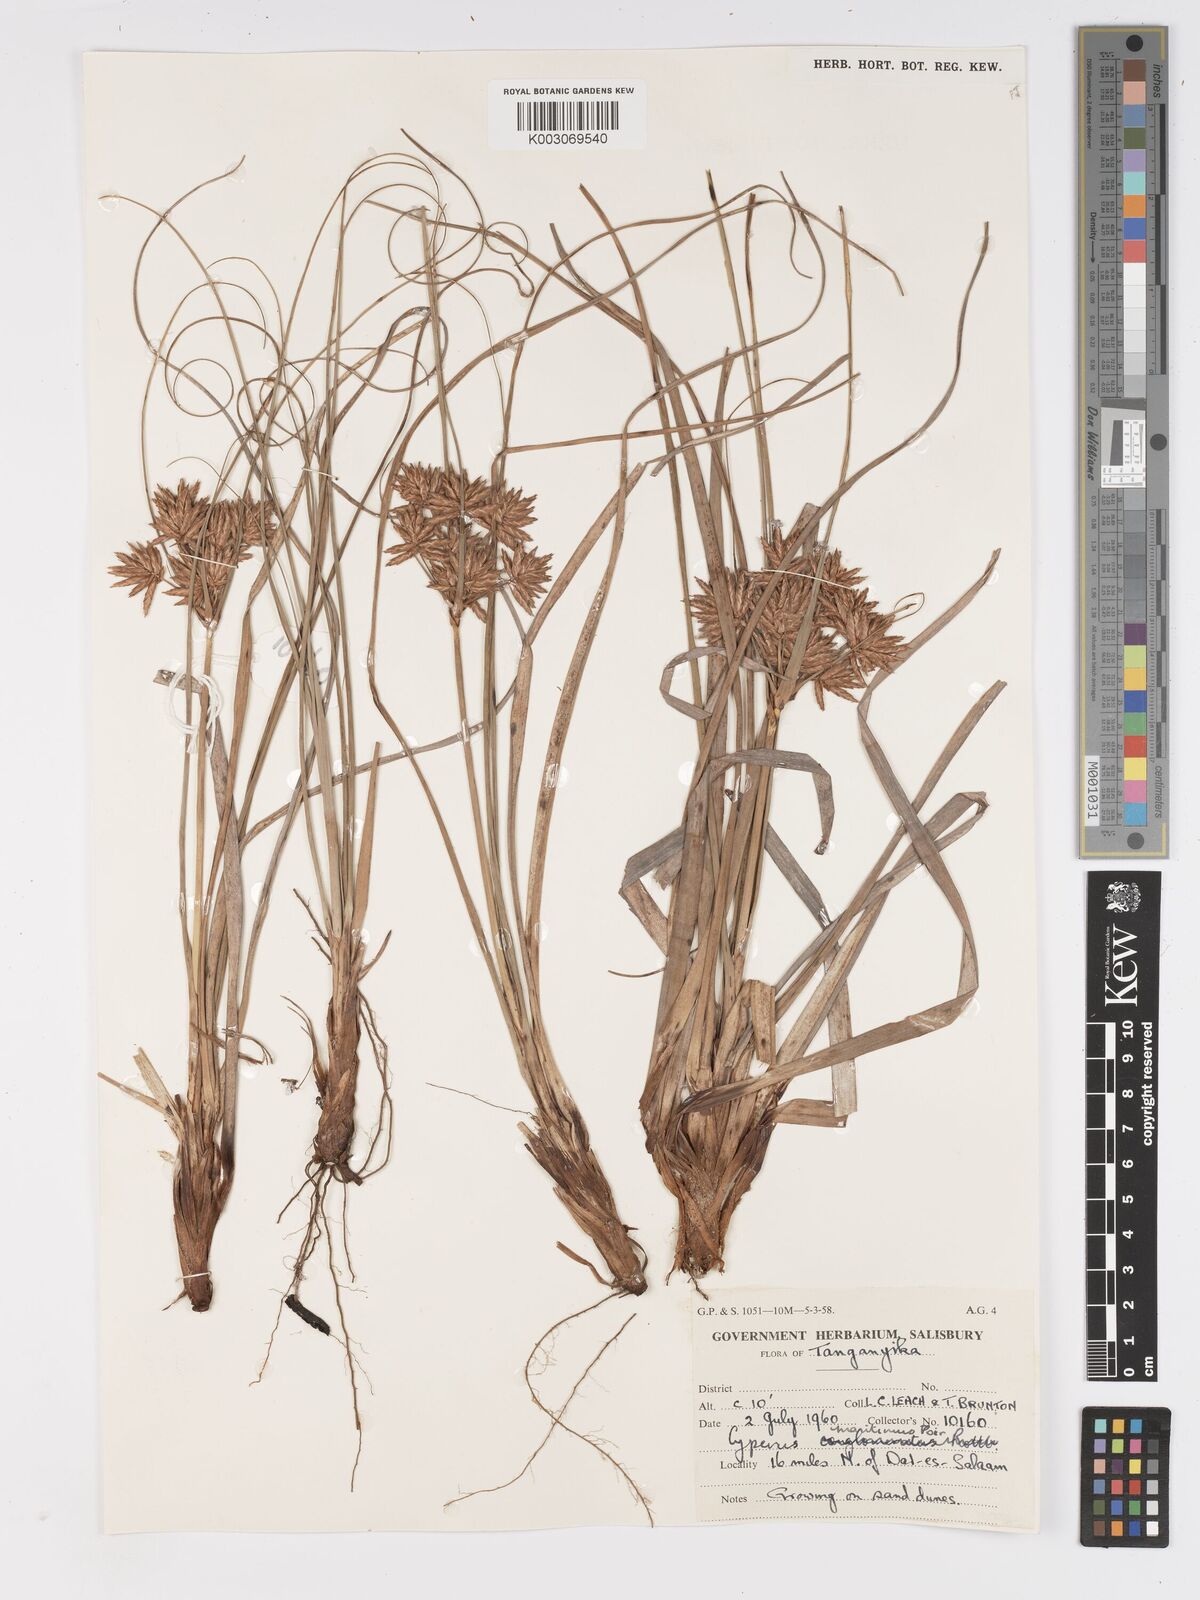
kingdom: Plantae
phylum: Tracheophyta
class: Liliopsida
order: Poales
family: Cyperaceae
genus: Cyperus
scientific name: Cyperus crassipes
